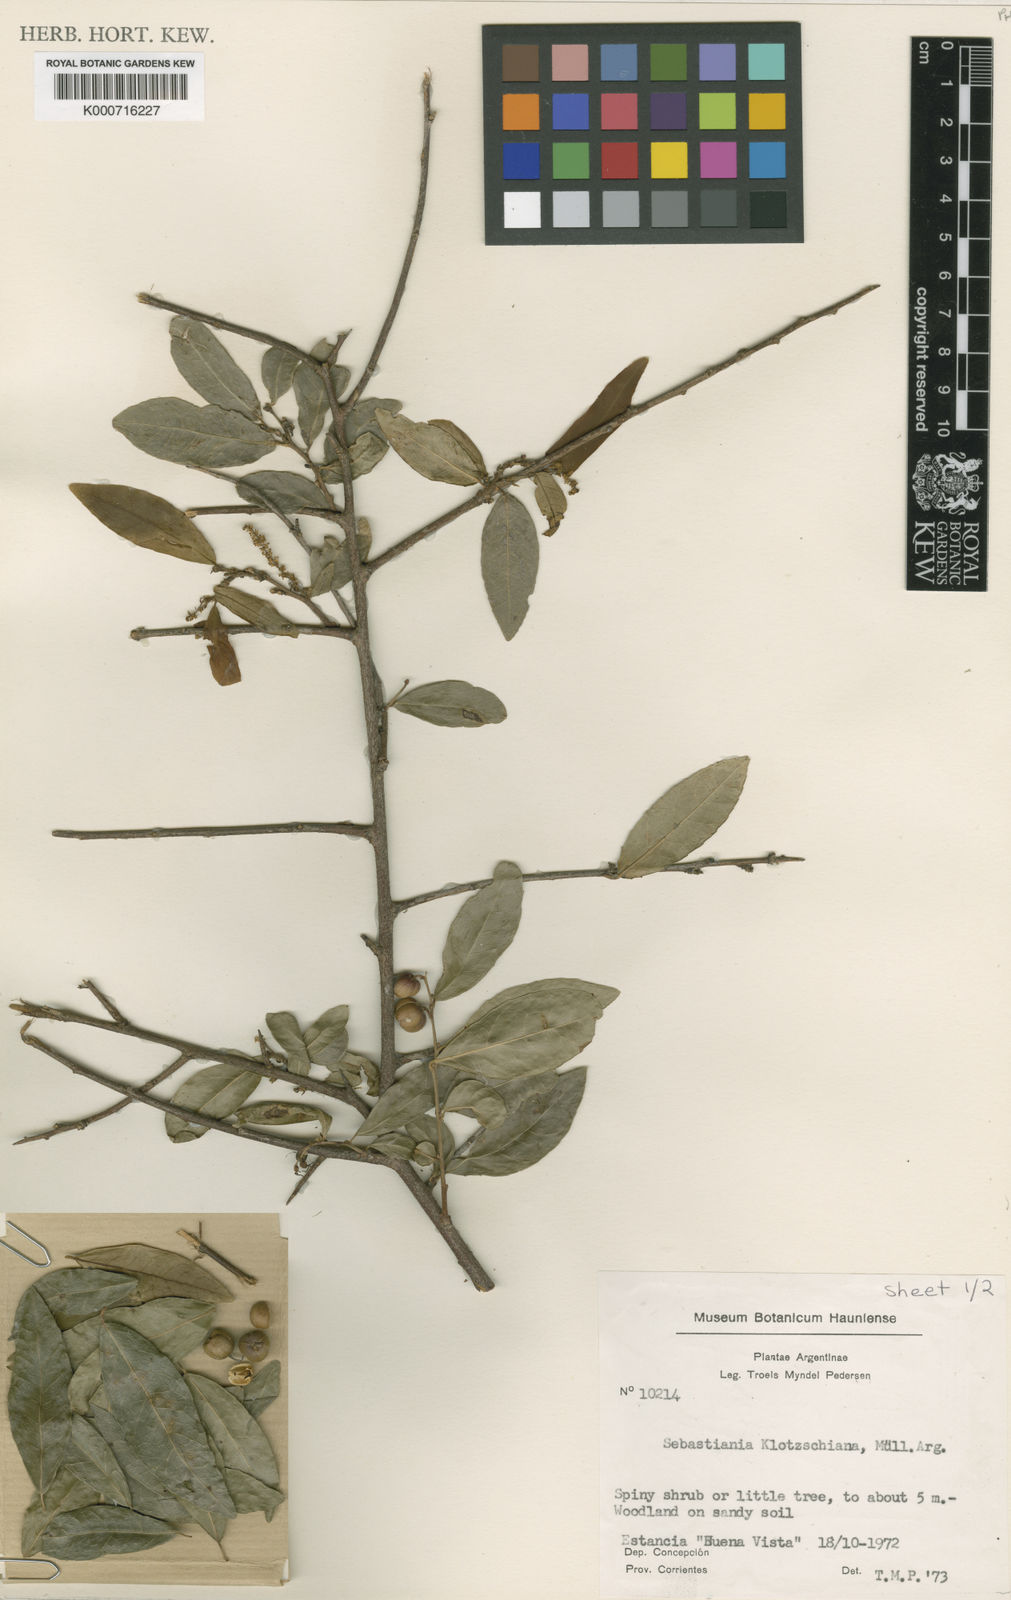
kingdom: Plantae
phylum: Tracheophyta
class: Magnoliopsida
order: Malpighiales
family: Euphorbiaceae
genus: Sebastiania
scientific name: Sebastiania
